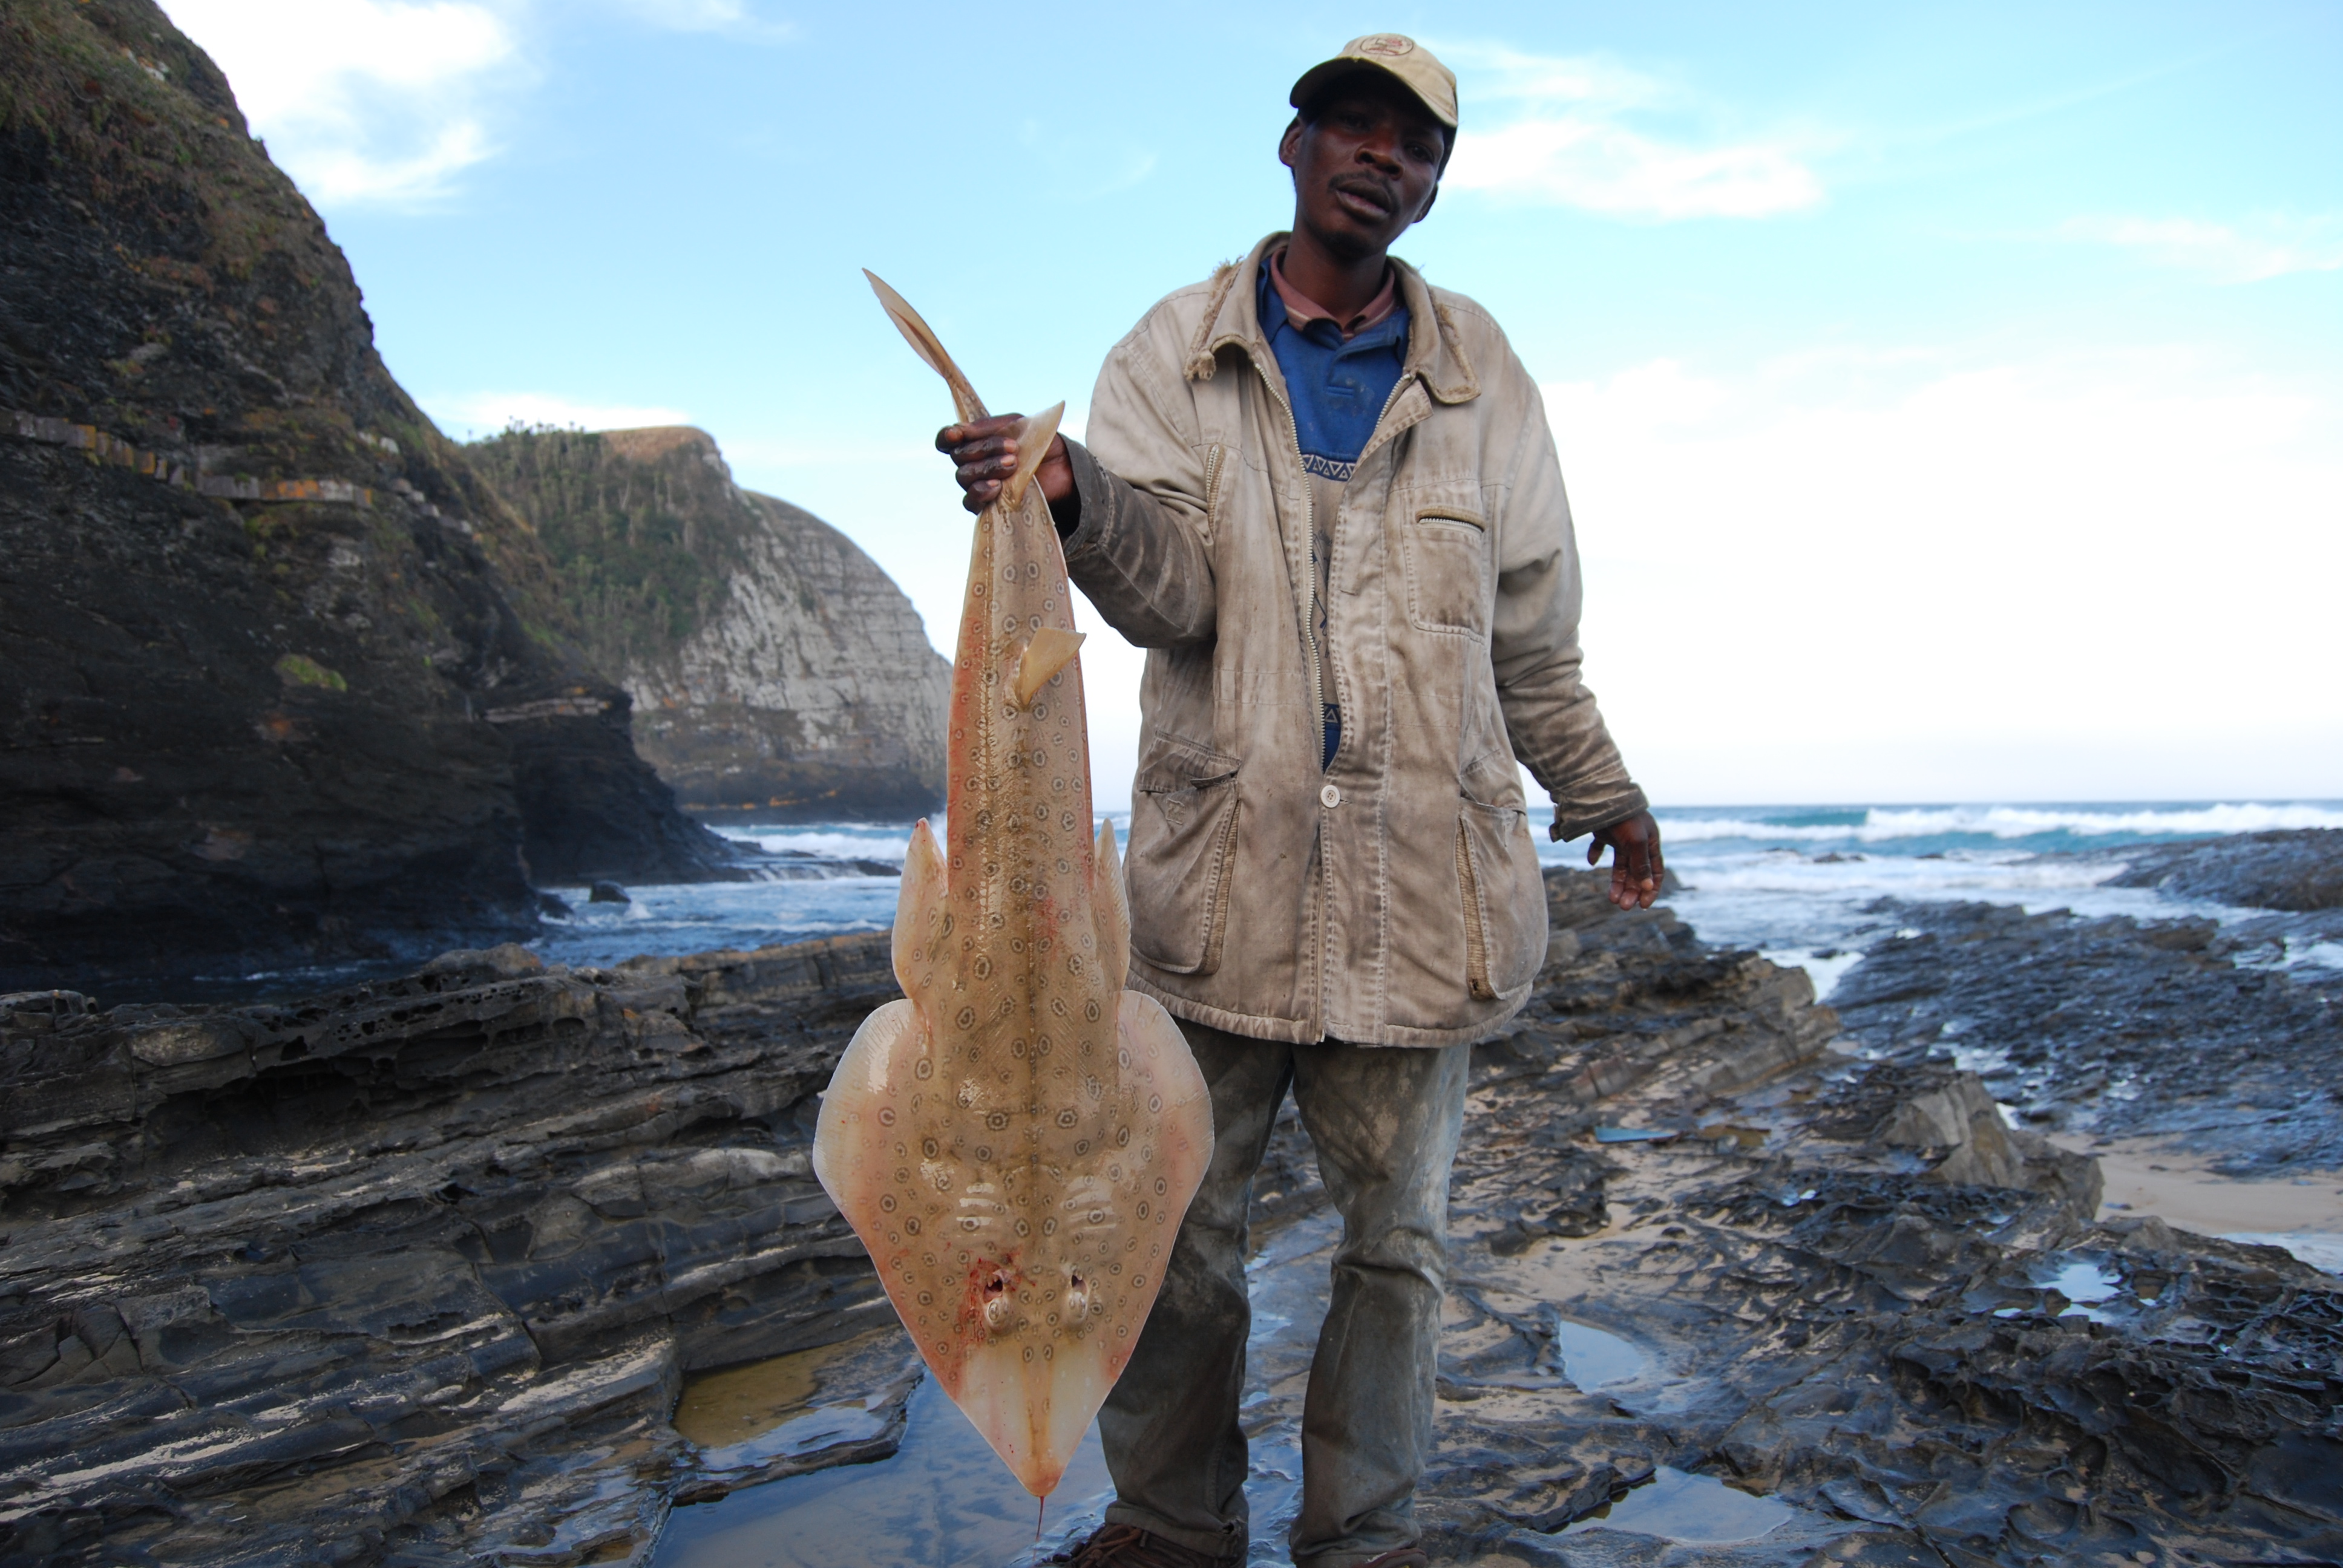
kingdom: Animalia
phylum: Chordata
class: Elasmobranchii
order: Rhinopristiformes
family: Rhinobatidae
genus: Acroteriobatus
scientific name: Acroteriobatus annulatus
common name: Lesser guitarfish
